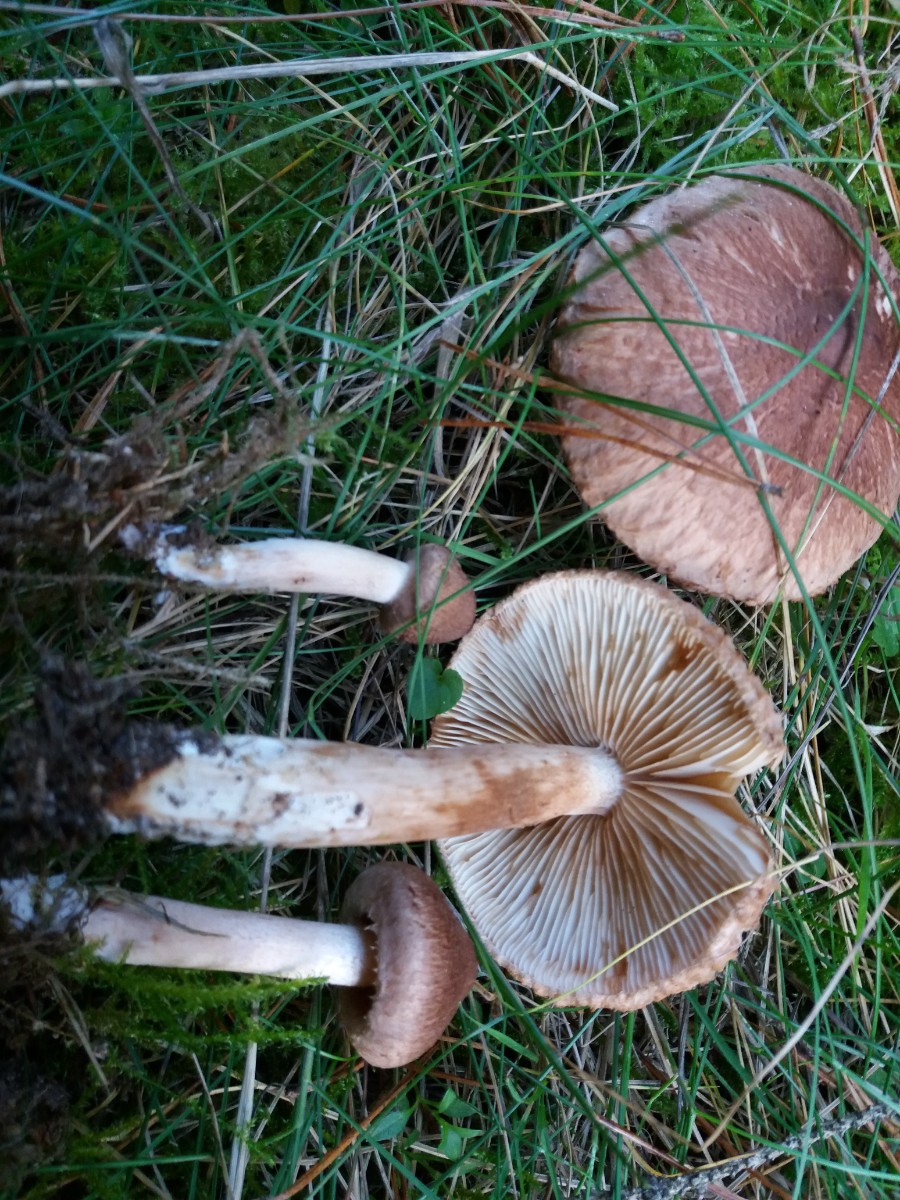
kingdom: Fungi
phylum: Basidiomycota
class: Agaricomycetes
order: Agaricales
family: Tricholomataceae
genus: Tricholoma
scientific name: Tricholoma vaccinum
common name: ko-ridderhat
